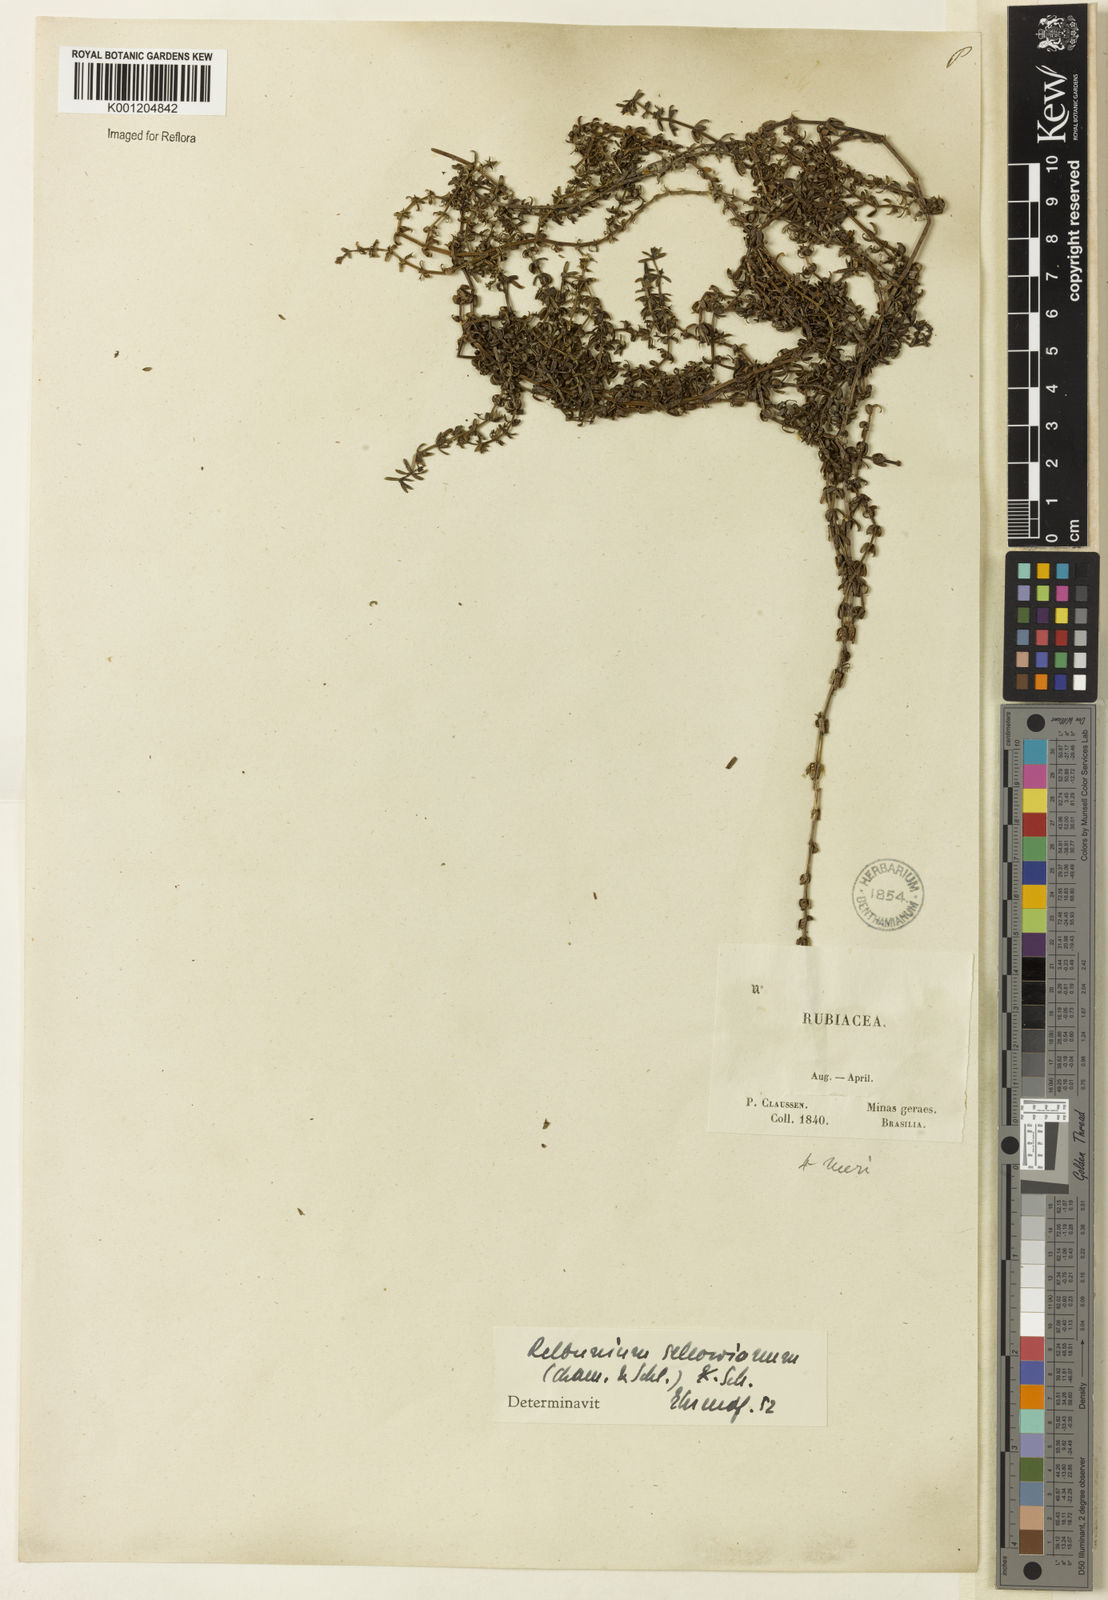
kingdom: Plantae
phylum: Tracheophyta
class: Magnoliopsida
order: Gentianales
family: Rubiaceae
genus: Galium
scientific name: Galium sellowianum
